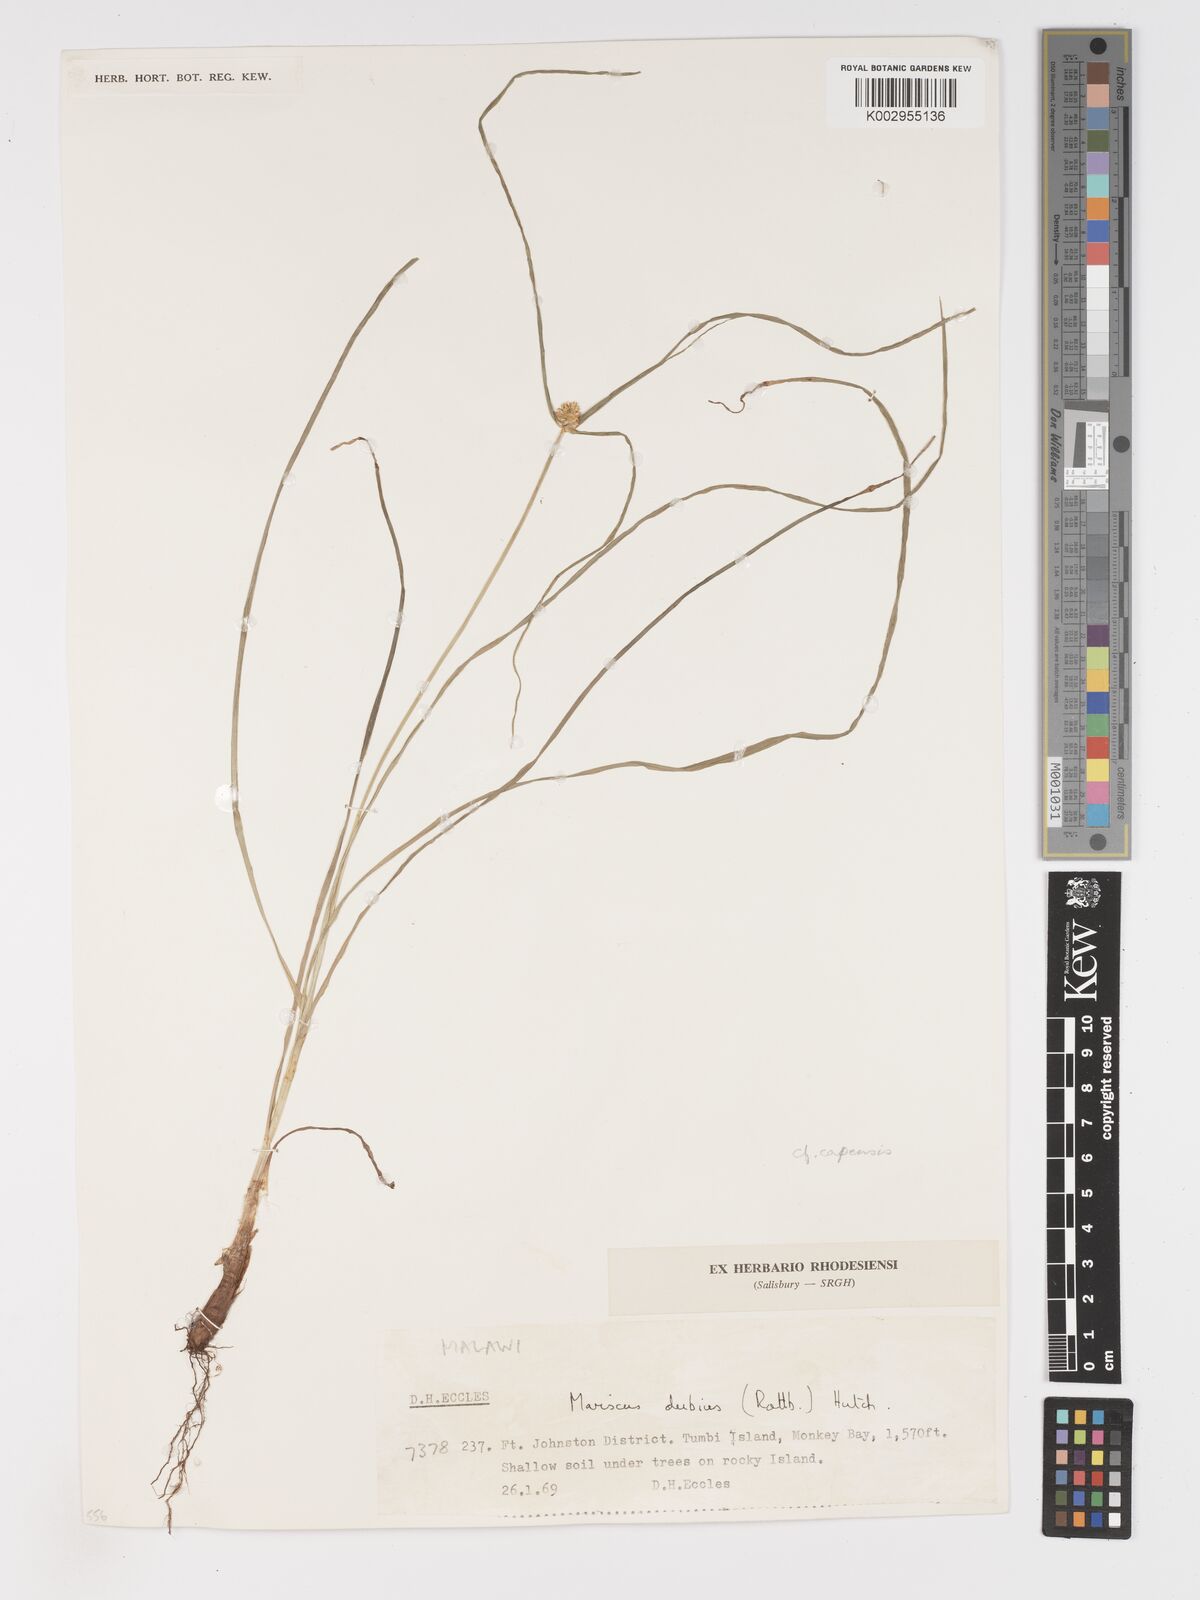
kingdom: Plantae
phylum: Tracheophyta
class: Liliopsida
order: Poales
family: Cyperaceae
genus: Cyperus
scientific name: Cyperus dubius
